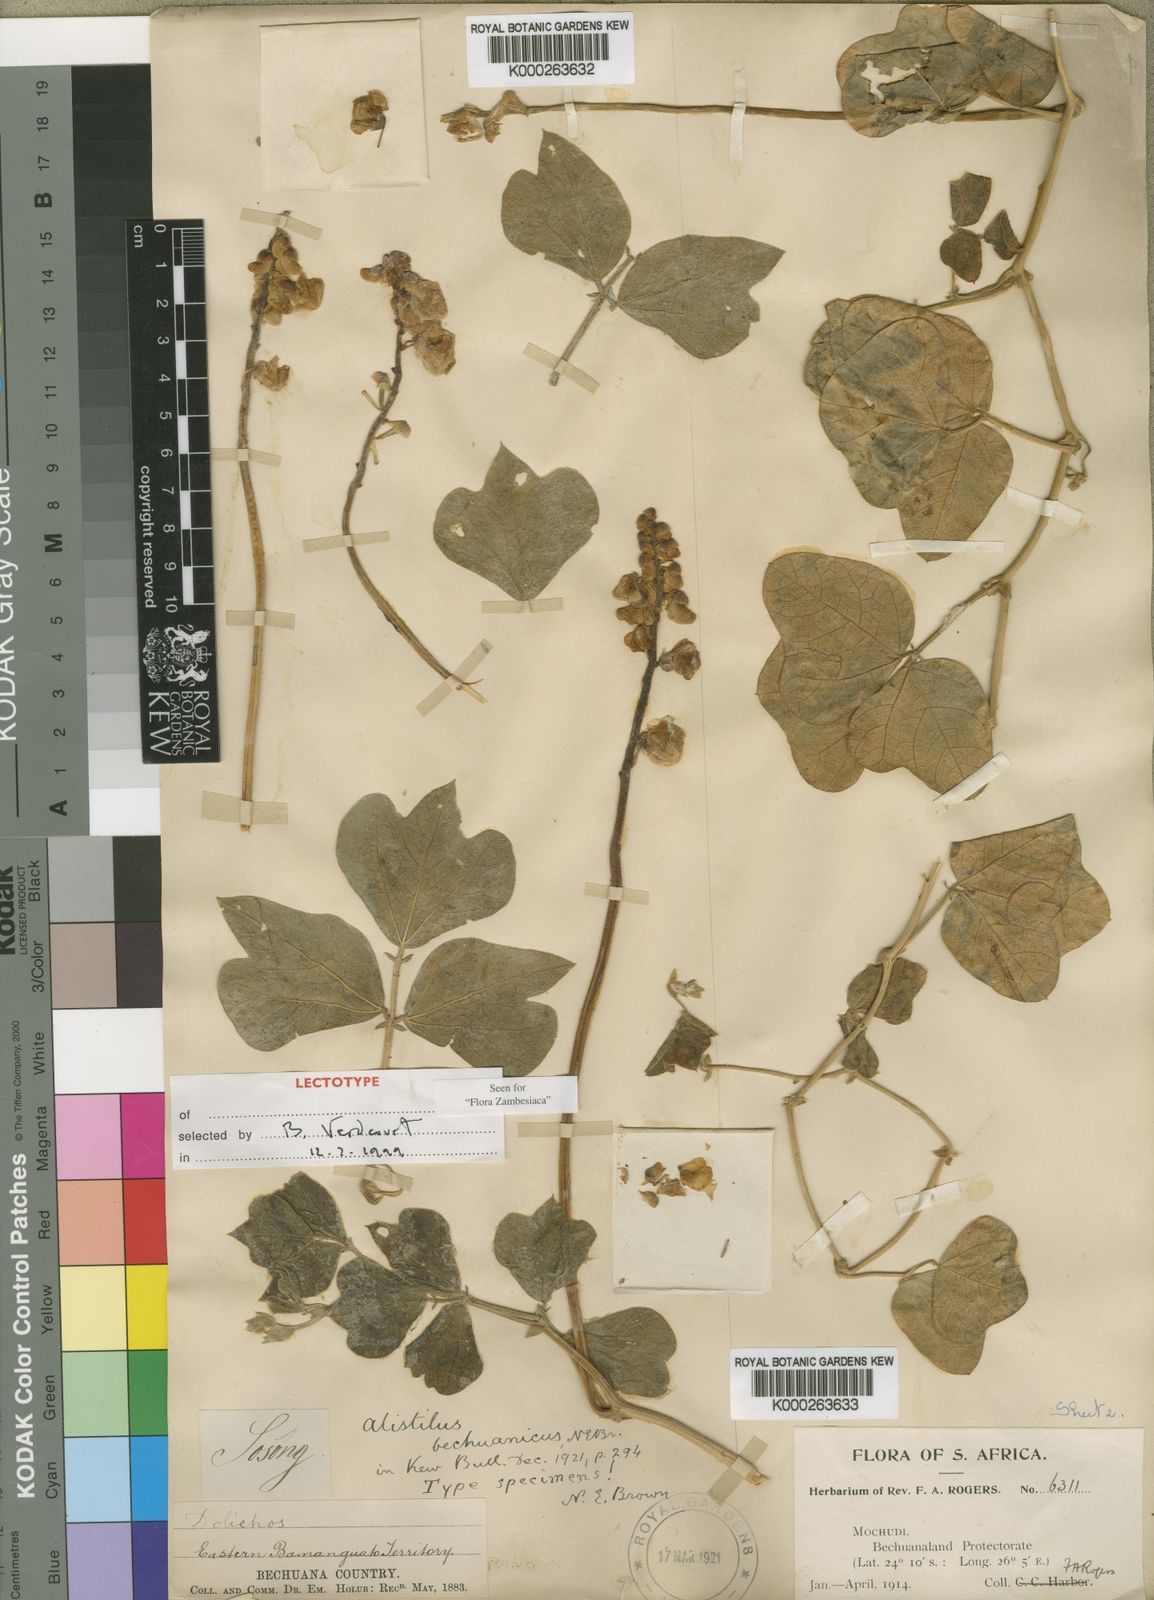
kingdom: Plantae
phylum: Tracheophyta
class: Magnoliopsida
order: Fabales
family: Fabaceae
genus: Alistilus
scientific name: Alistilus bechuanicus
